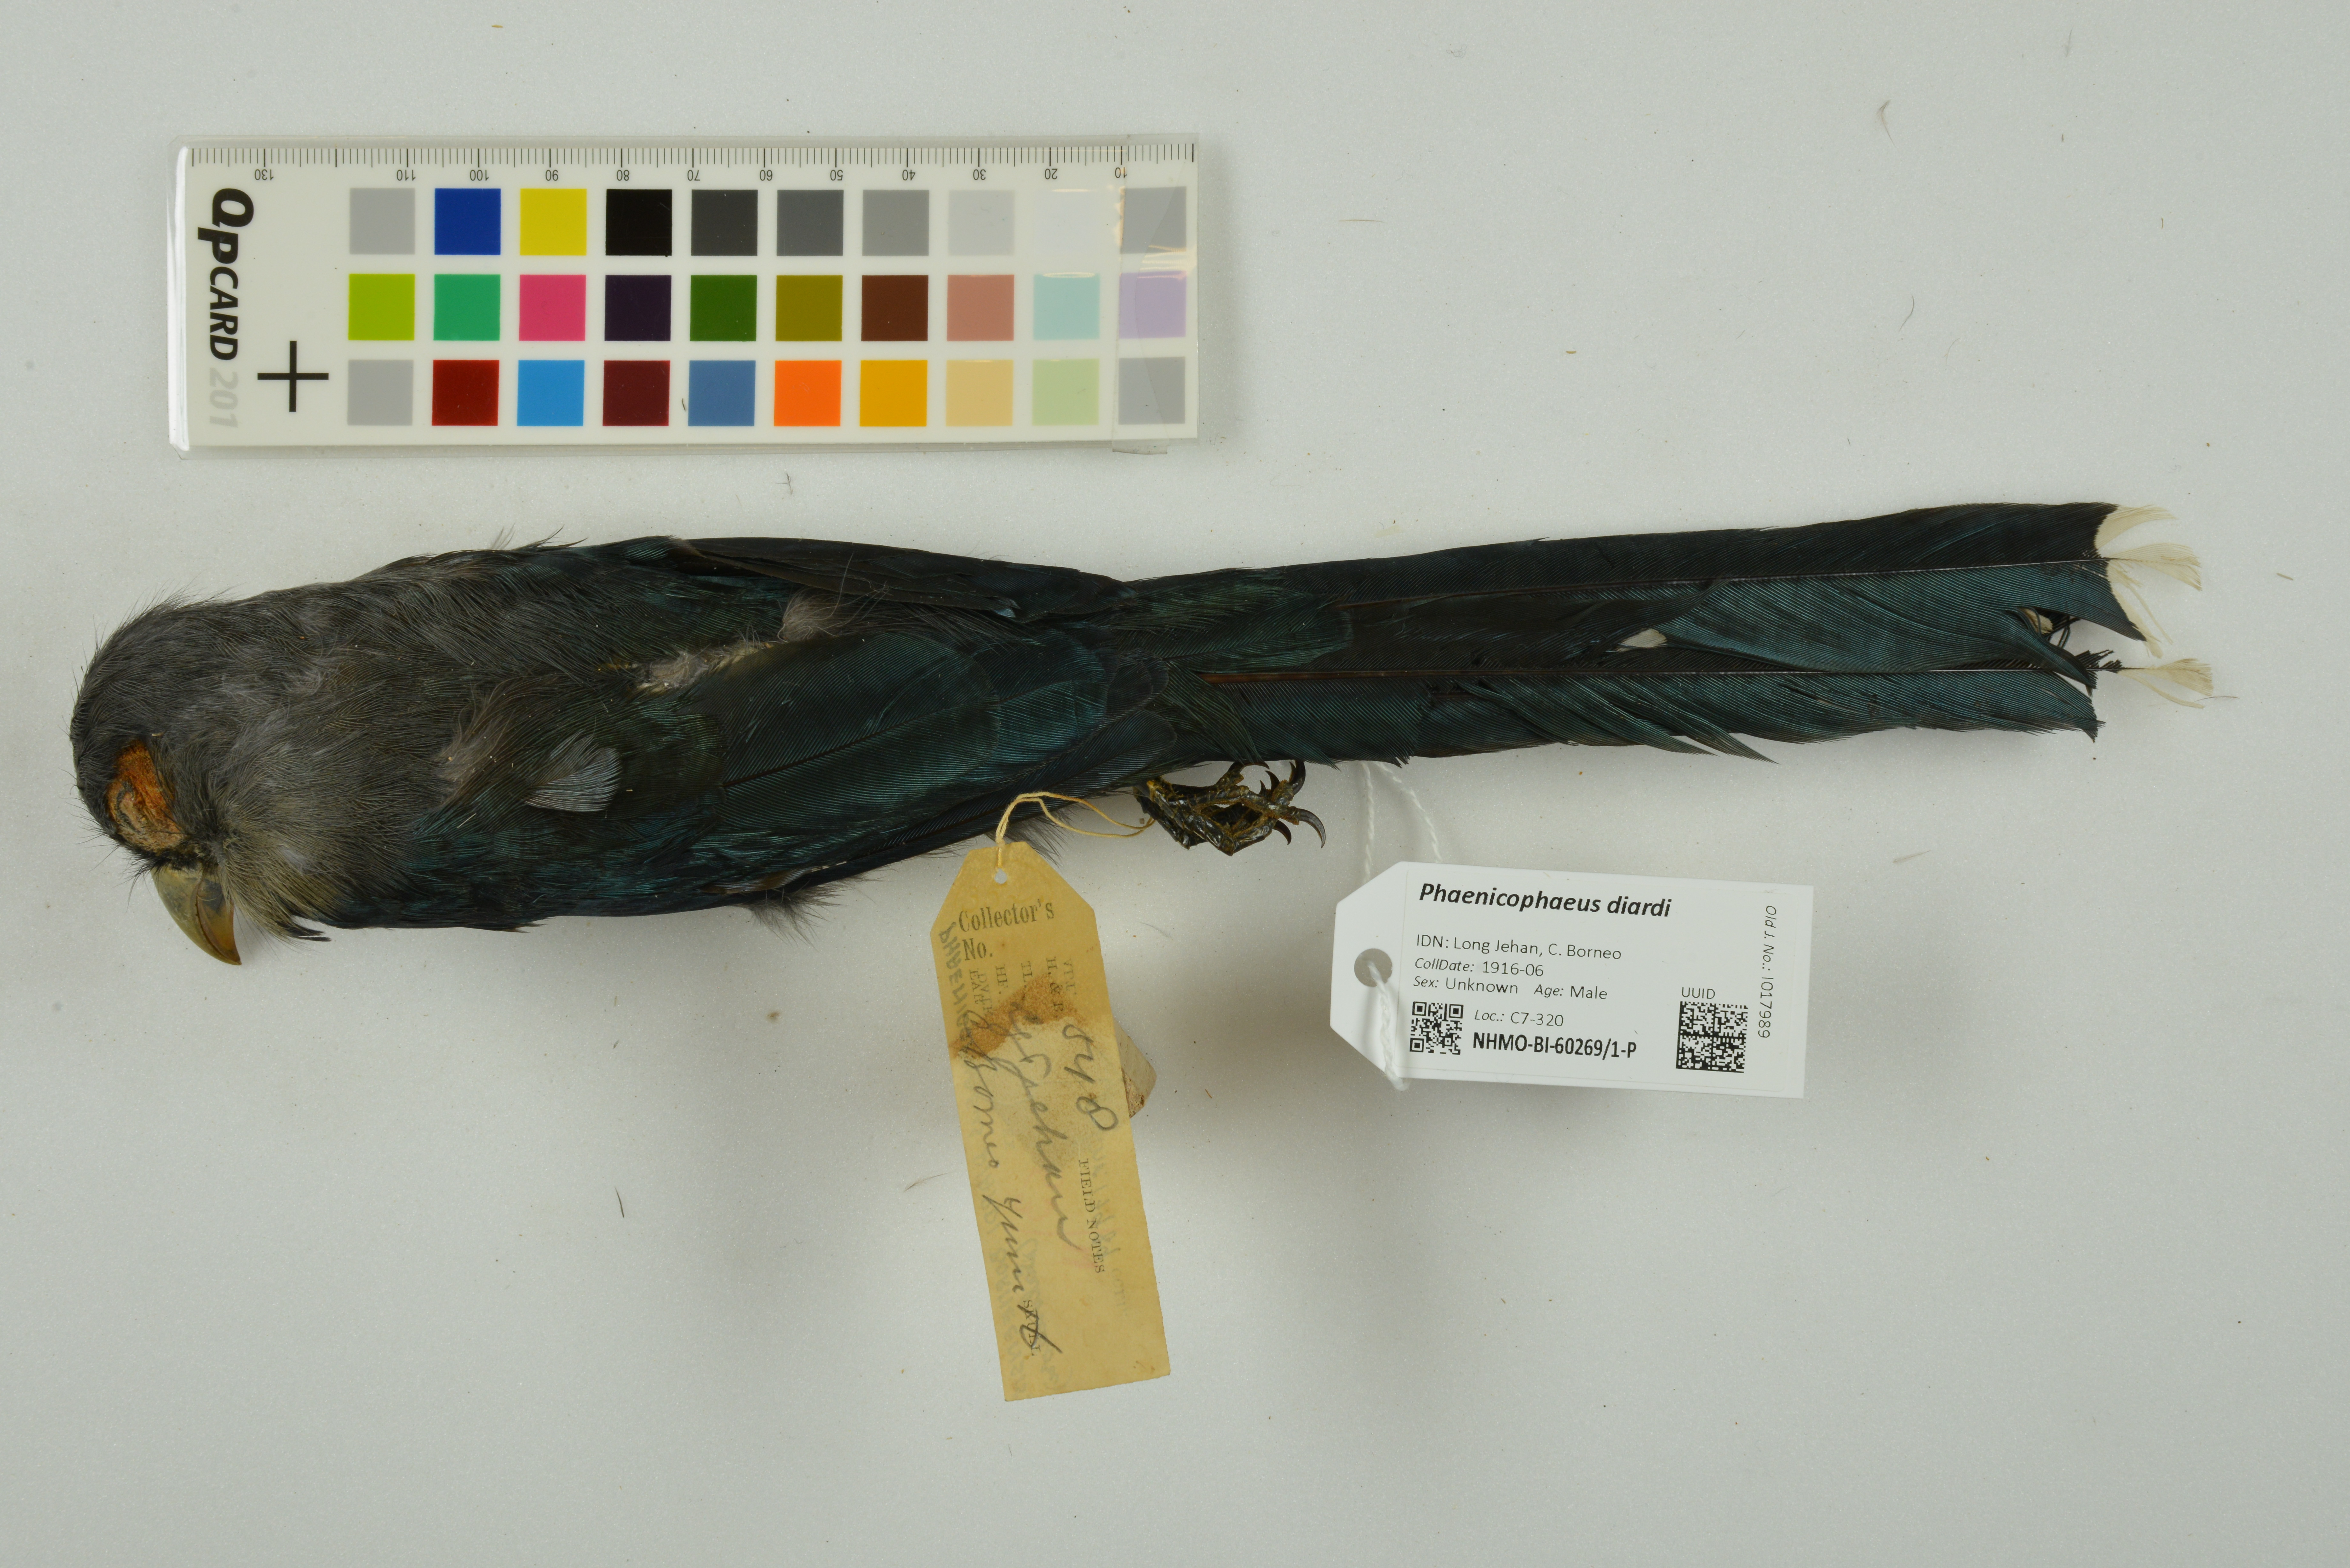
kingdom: Animalia
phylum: Chordata
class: Aves
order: Cuculiformes
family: Cuculidae
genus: Rhopodytes
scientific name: Rhopodytes diardi
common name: Lesser green-billed malcoha
